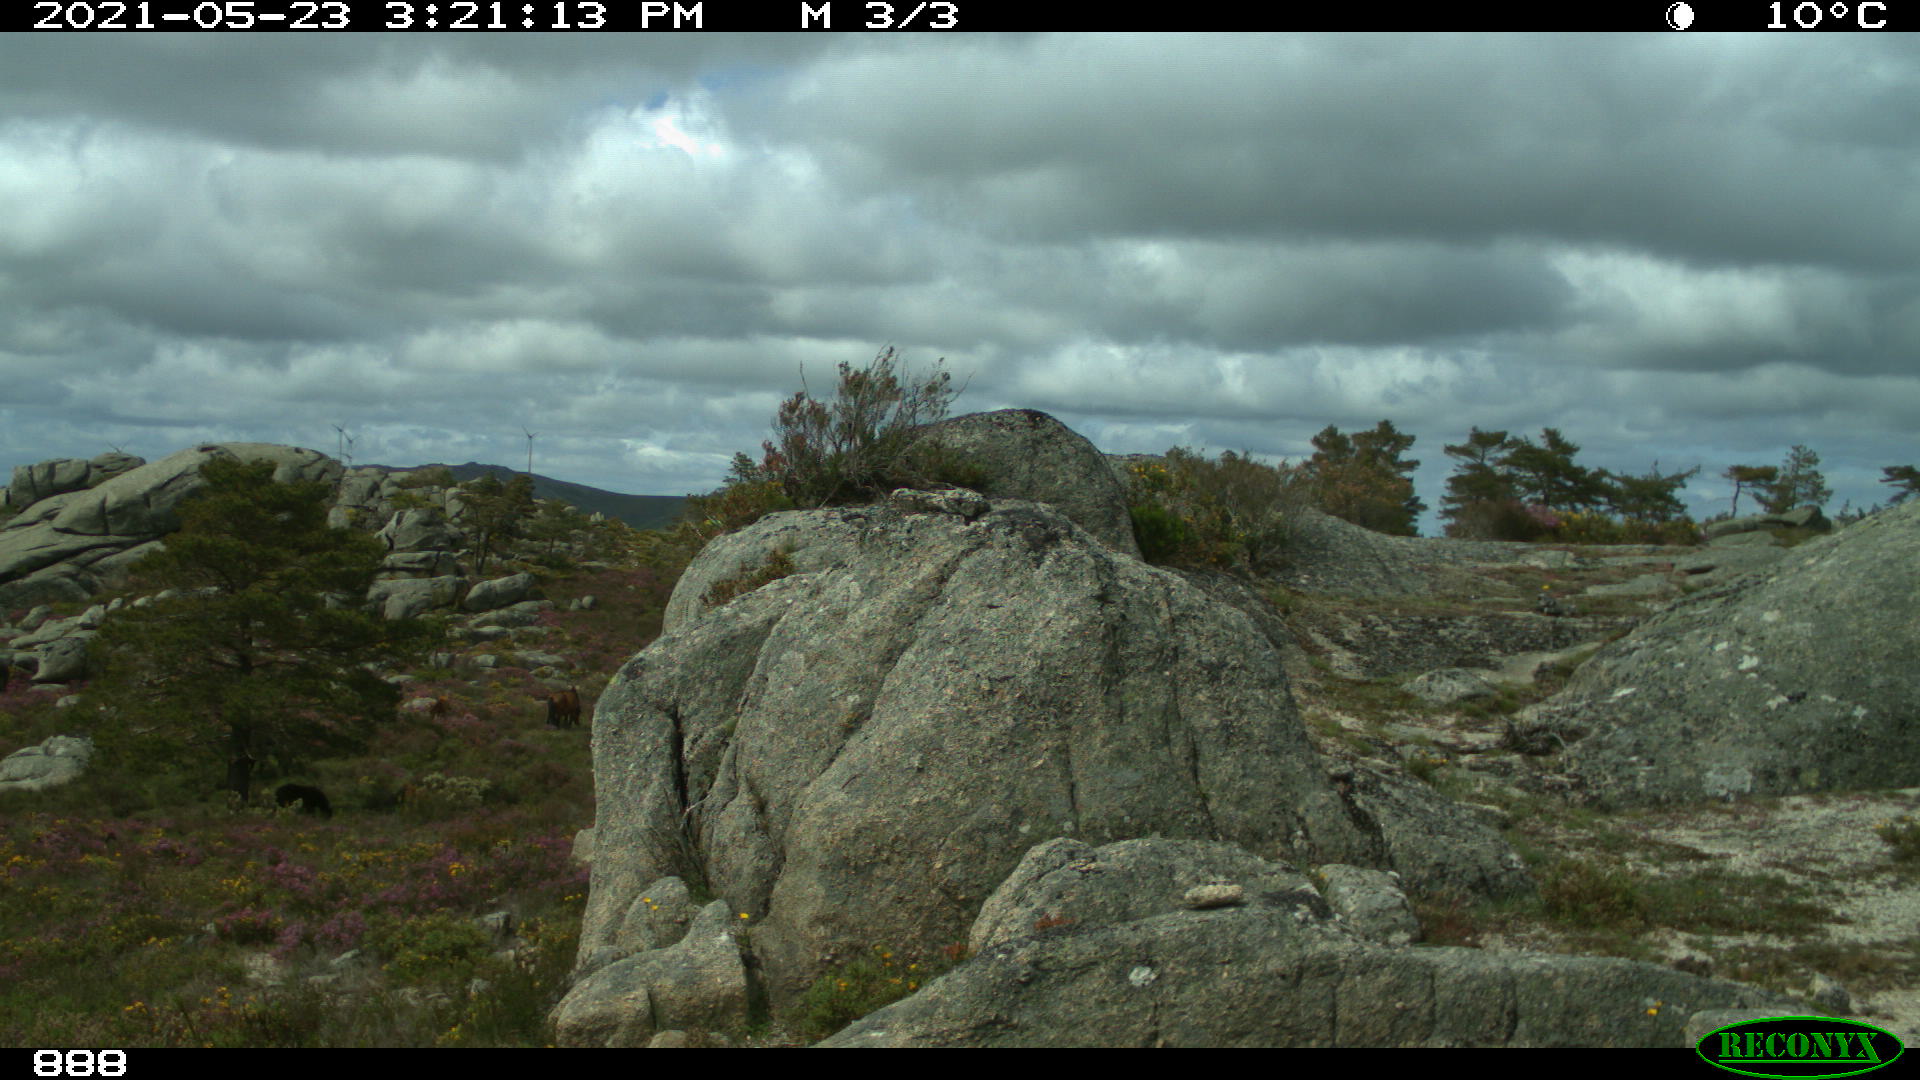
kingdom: Animalia
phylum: Chordata
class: Mammalia
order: Perissodactyla
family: Equidae
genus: Equus
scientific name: Equus caballus
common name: Horse
